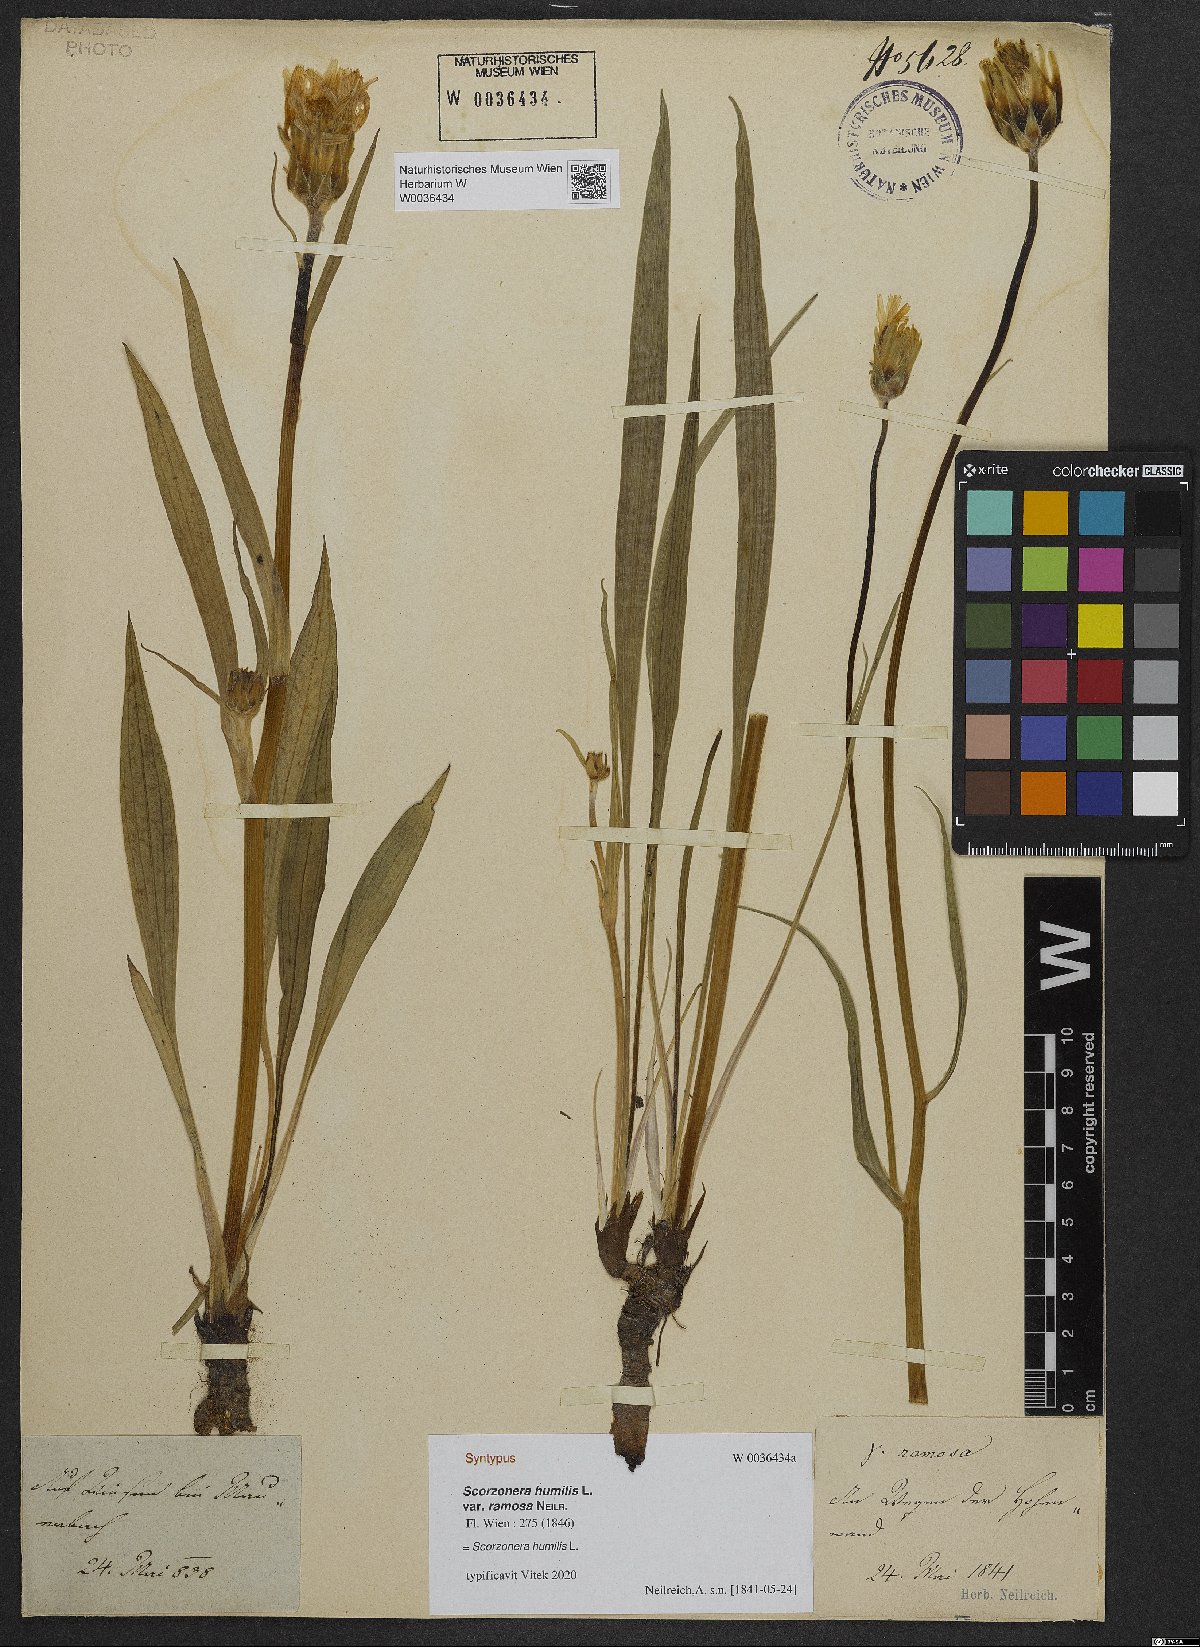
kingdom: Plantae
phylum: Tracheophyta
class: Magnoliopsida
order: Asterales
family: Asteraceae
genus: Scorzonera
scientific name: Scorzonera humilis
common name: Viper's-grass
